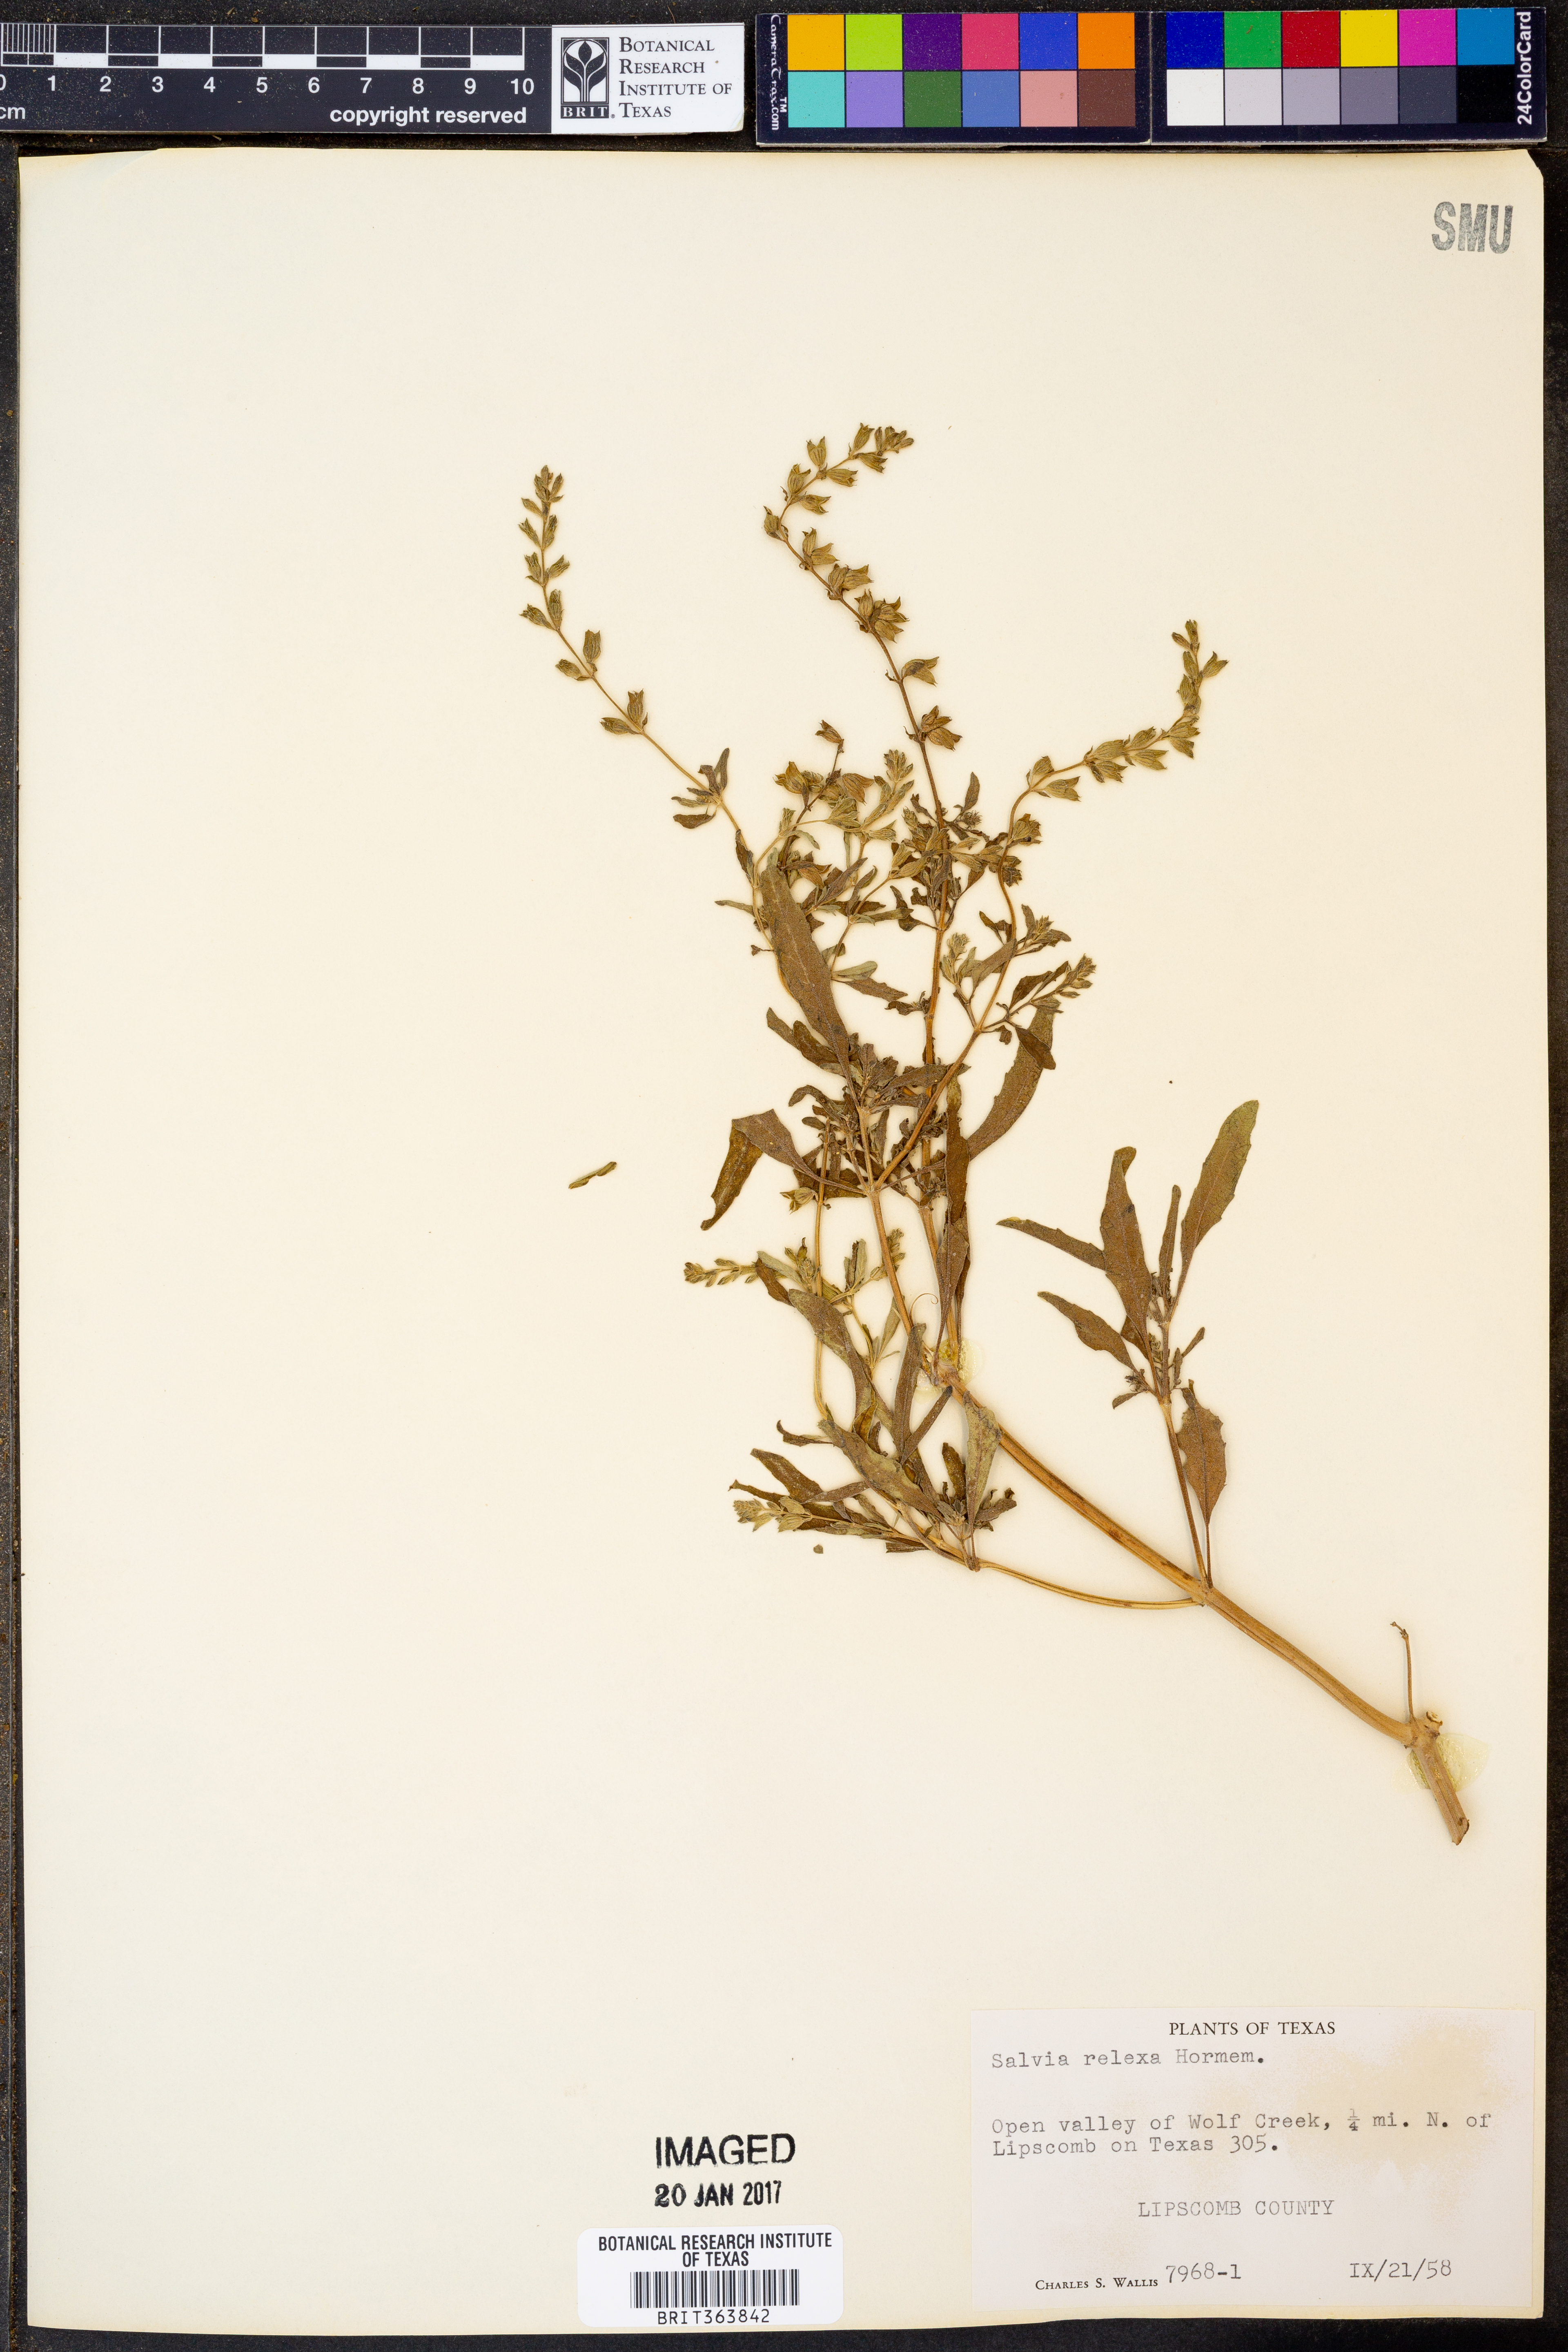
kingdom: Plantae
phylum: Tracheophyta
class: Magnoliopsida
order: Lamiales
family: Lamiaceae
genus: Salvia
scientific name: Salvia reflexa
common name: Mintweed
